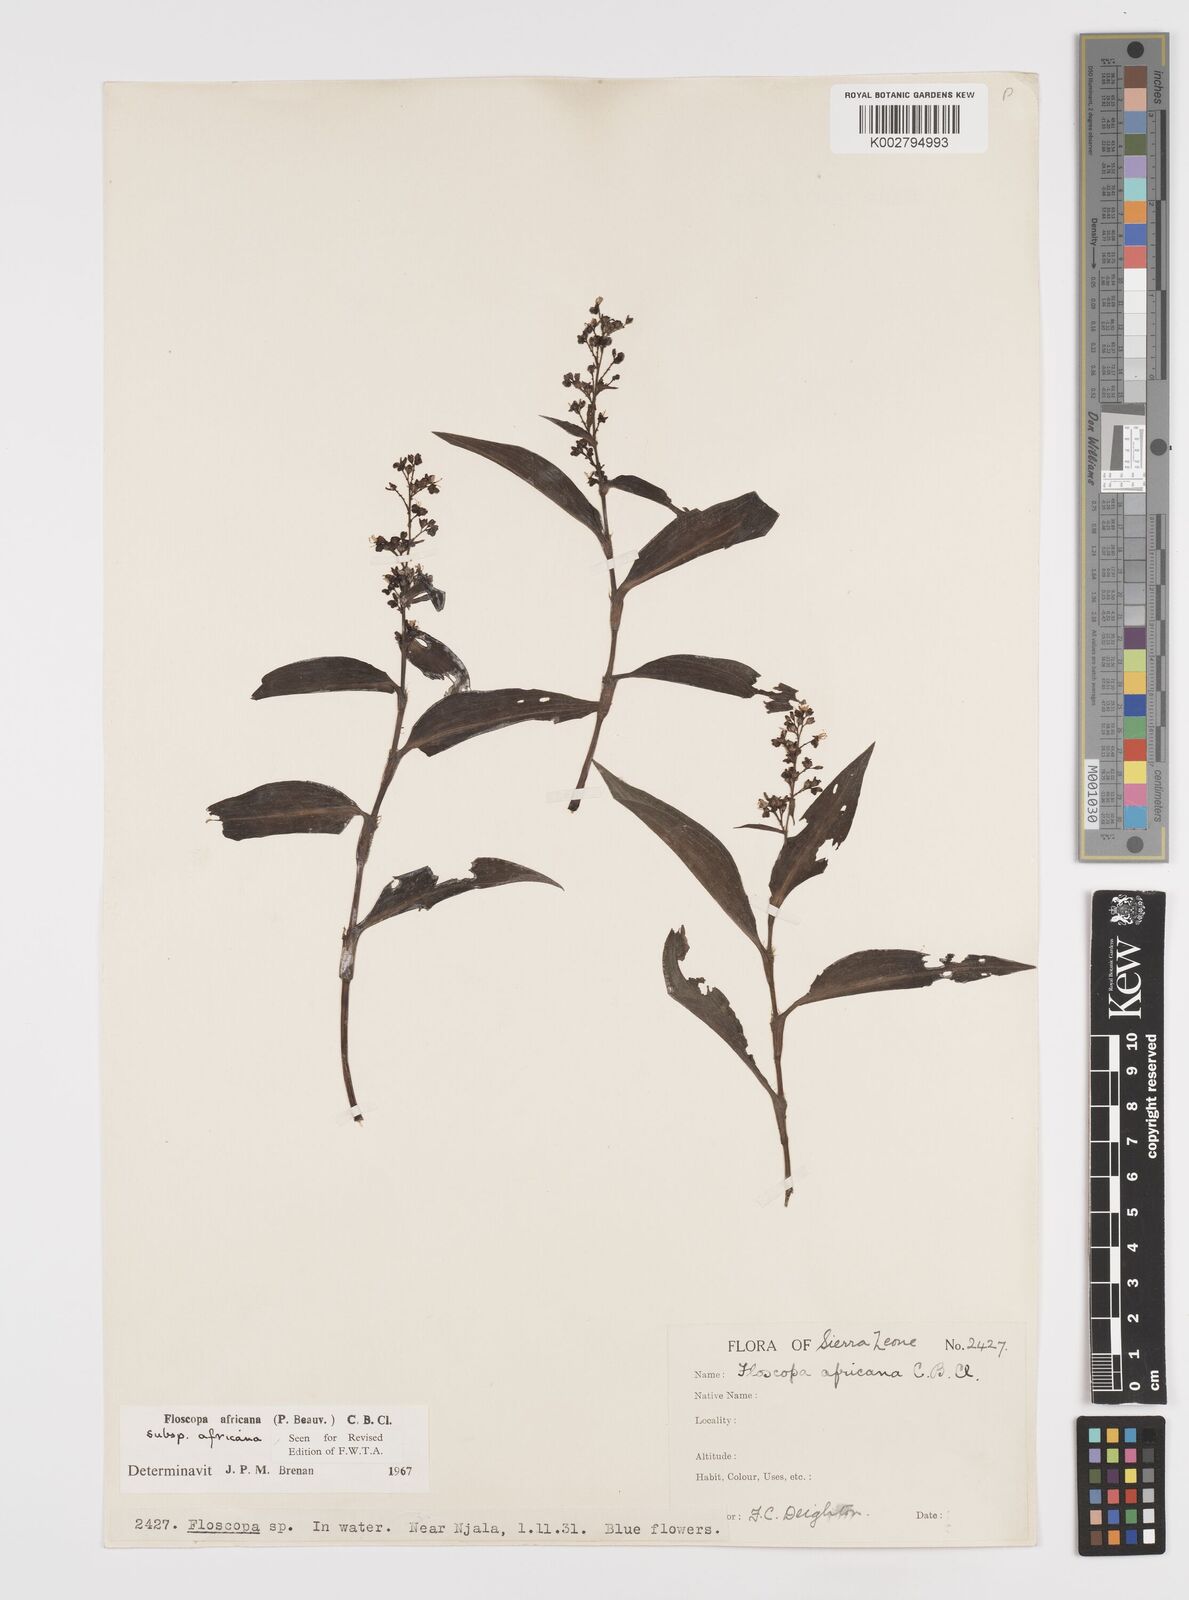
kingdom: Plantae
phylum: Tracheophyta
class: Liliopsida
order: Commelinales
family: Commelinaceae
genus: Floscopa
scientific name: Floscopa africana
